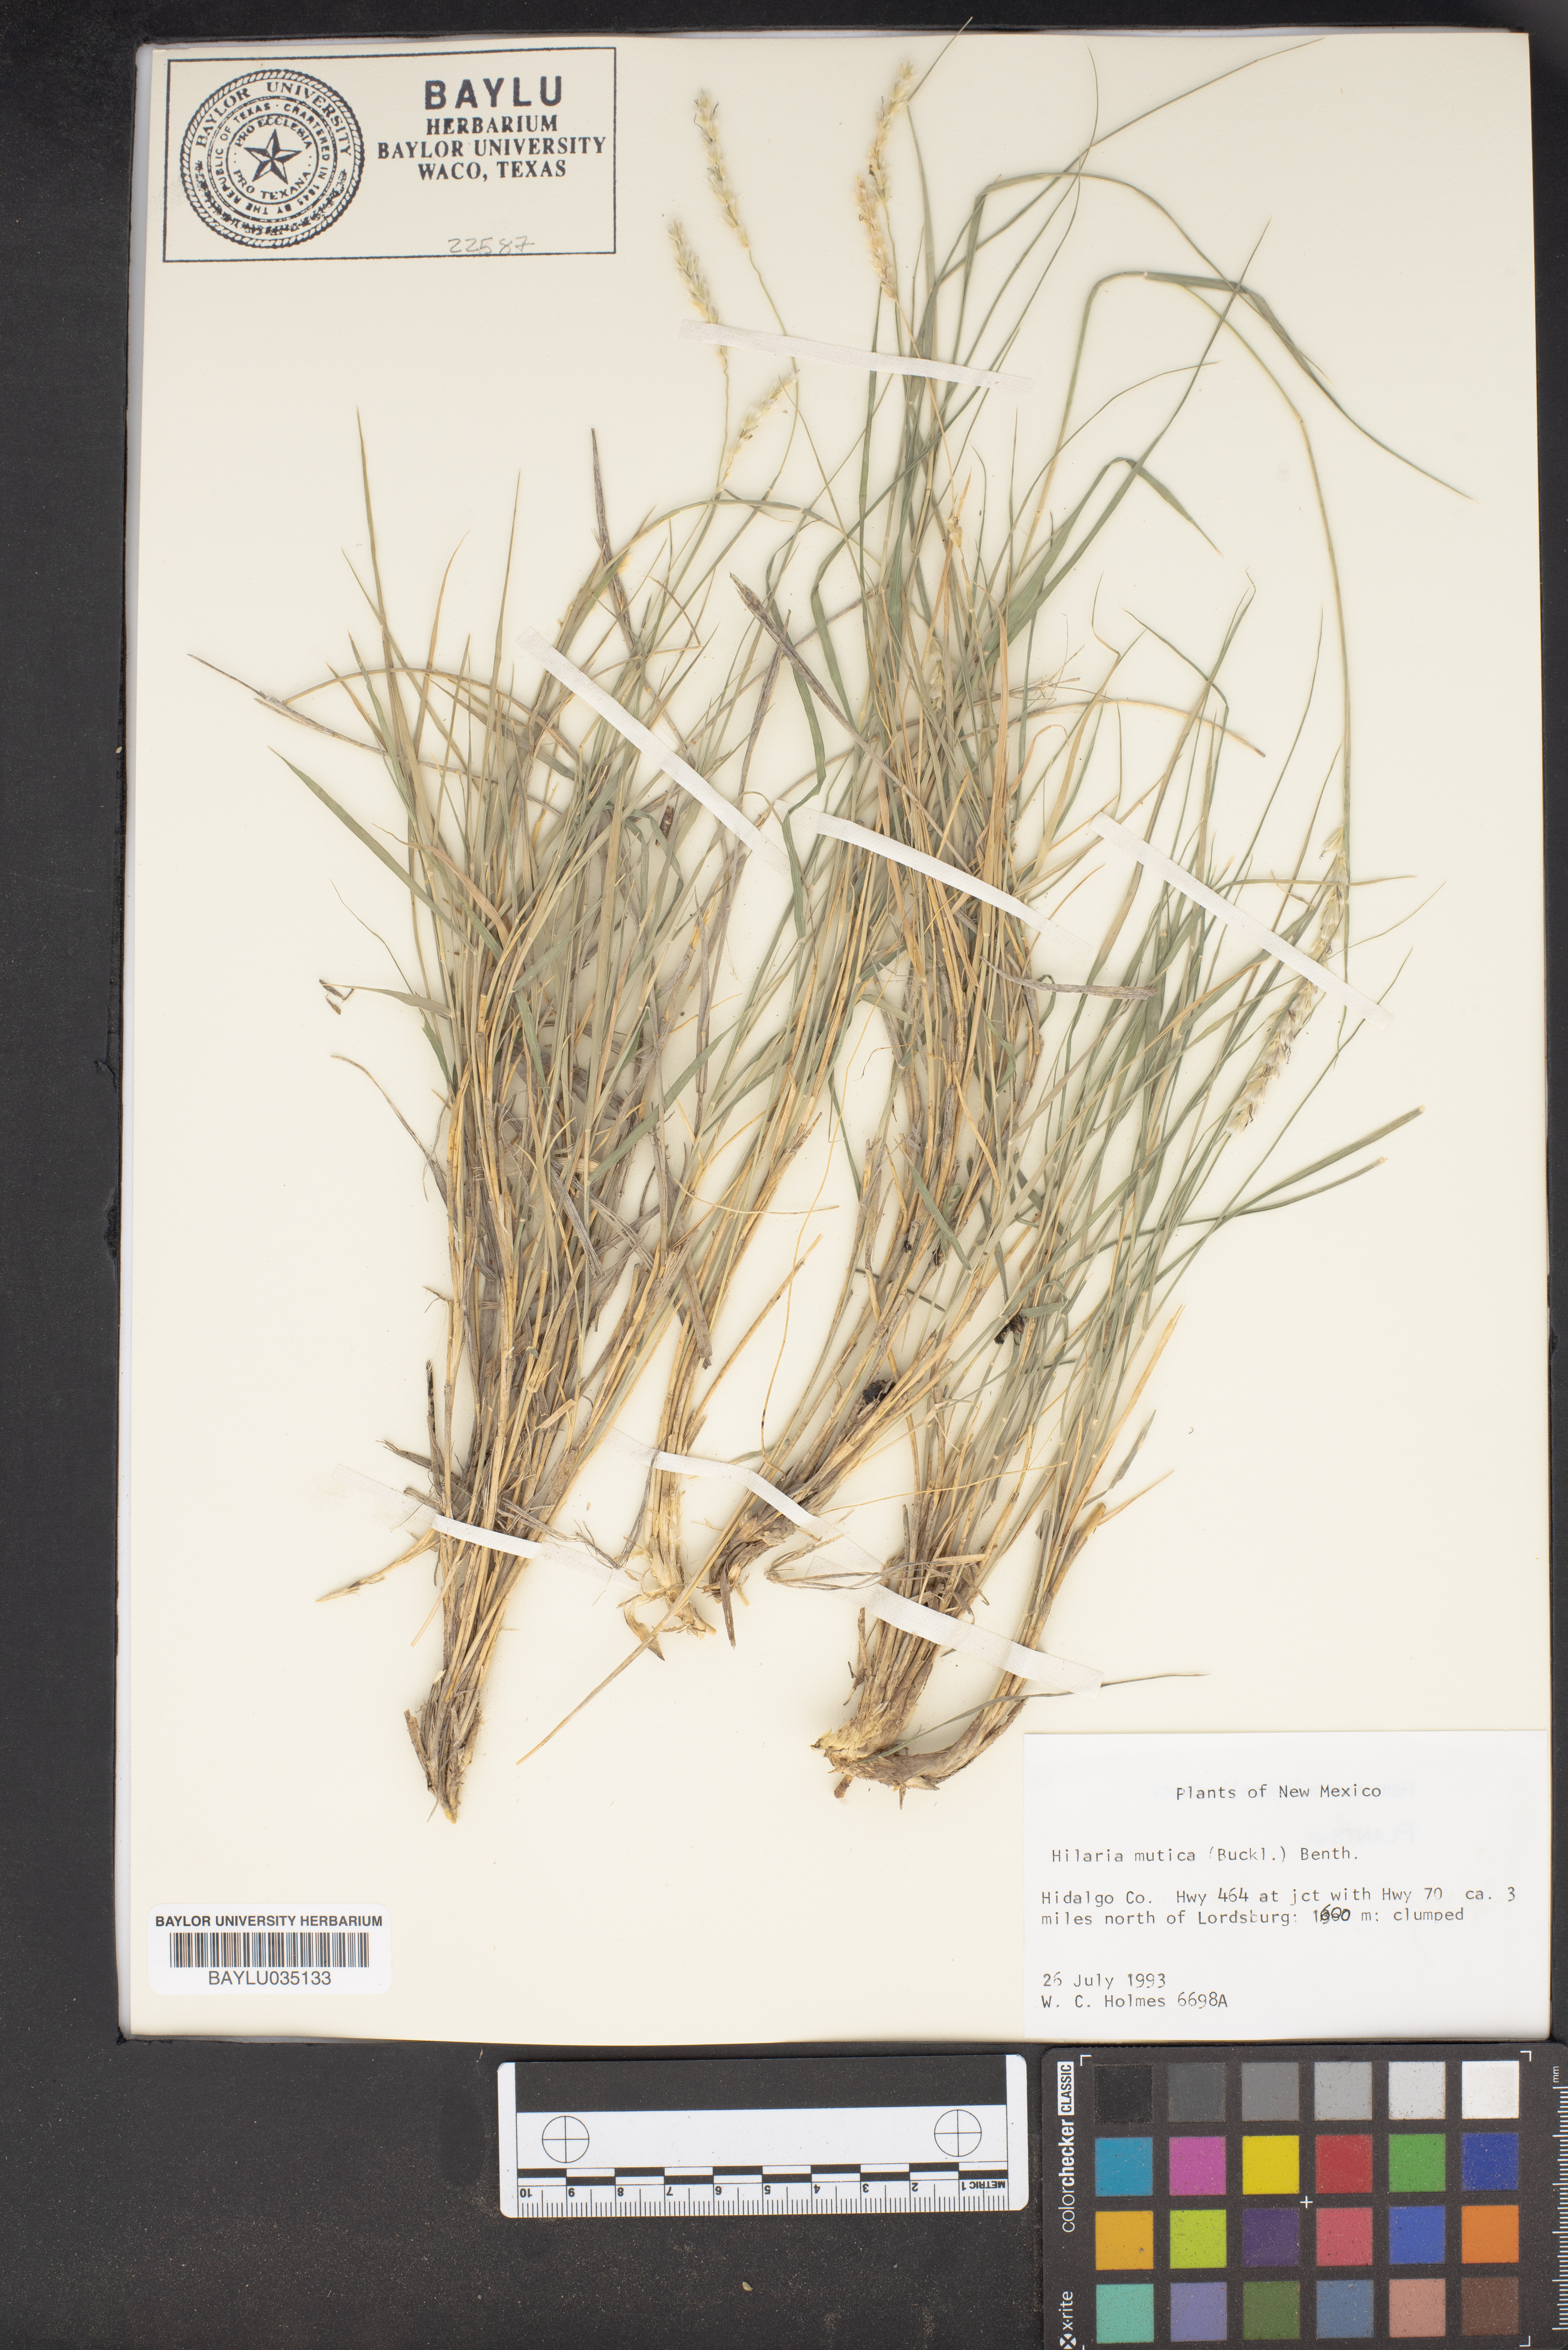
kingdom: Plantae
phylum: Tracheophyta
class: Liliopsida
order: Poales
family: Poaceae
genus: Hilaria
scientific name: Hilaria mutica
